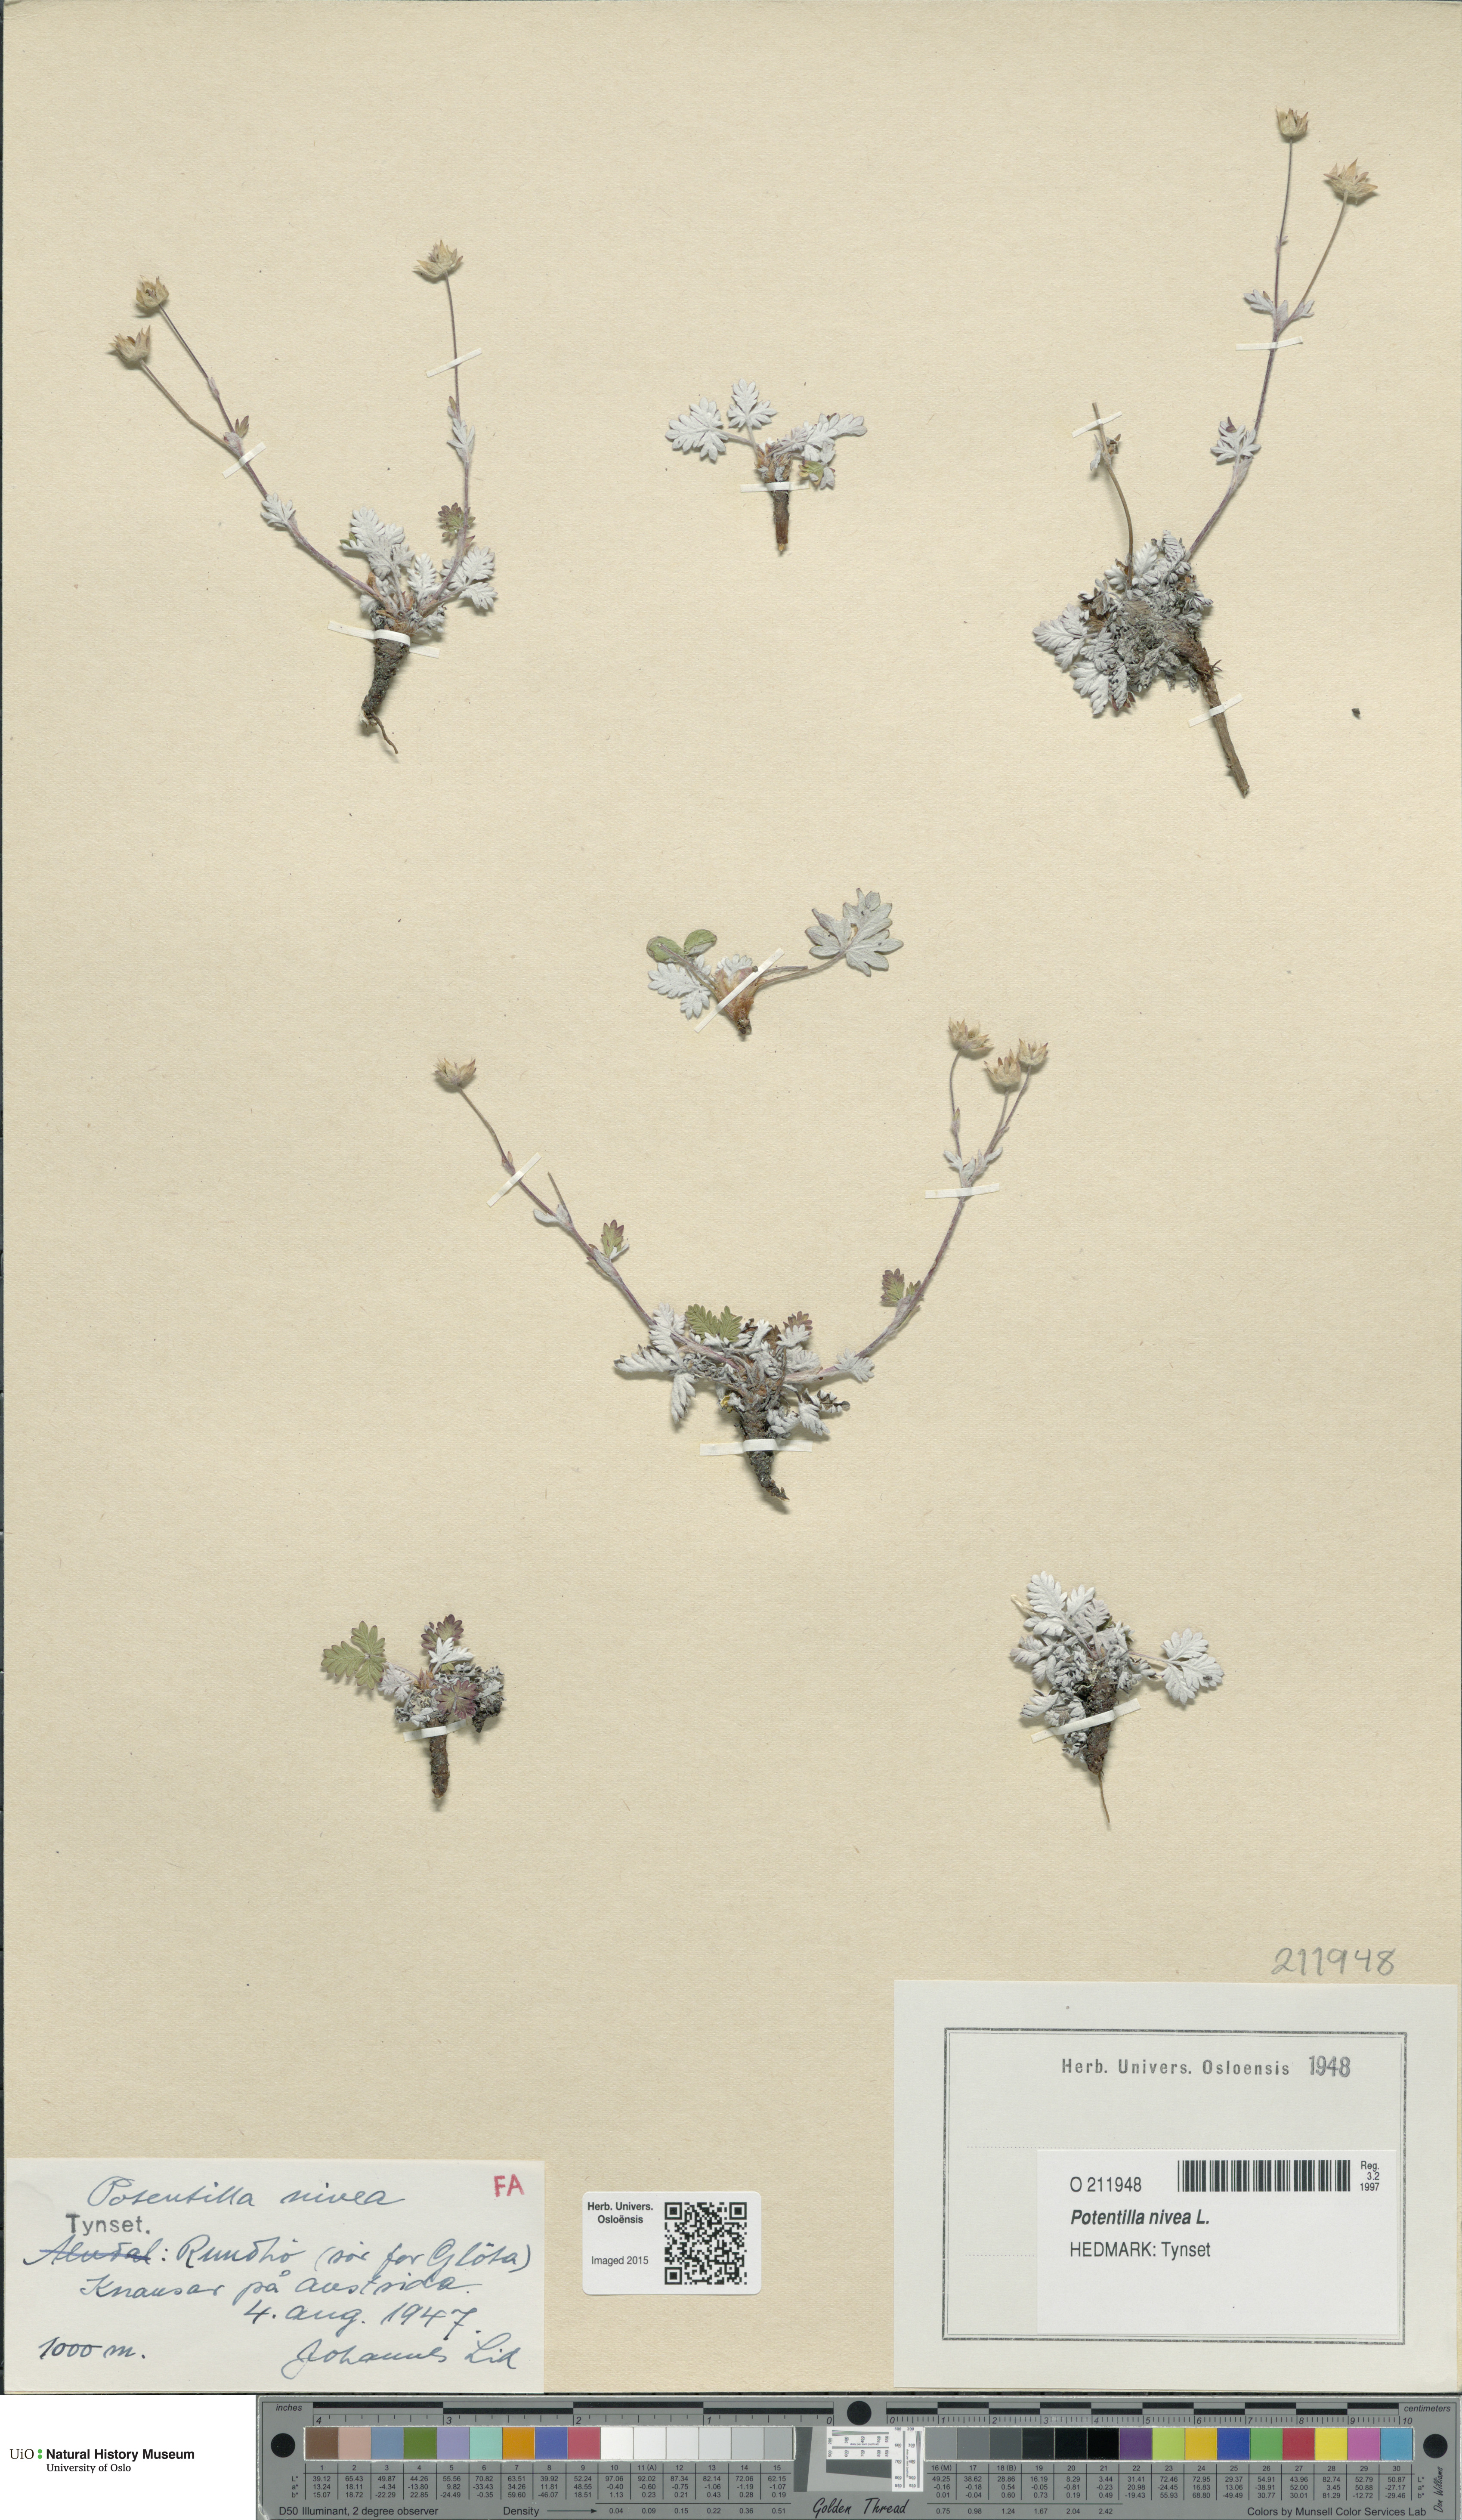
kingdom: Plantae
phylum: Tracheophyta
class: Magnoliopsida
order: Rosales
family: Rosaceae
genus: Potentilla
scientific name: Potentilla arenosa
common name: Bluff cinquefoil
